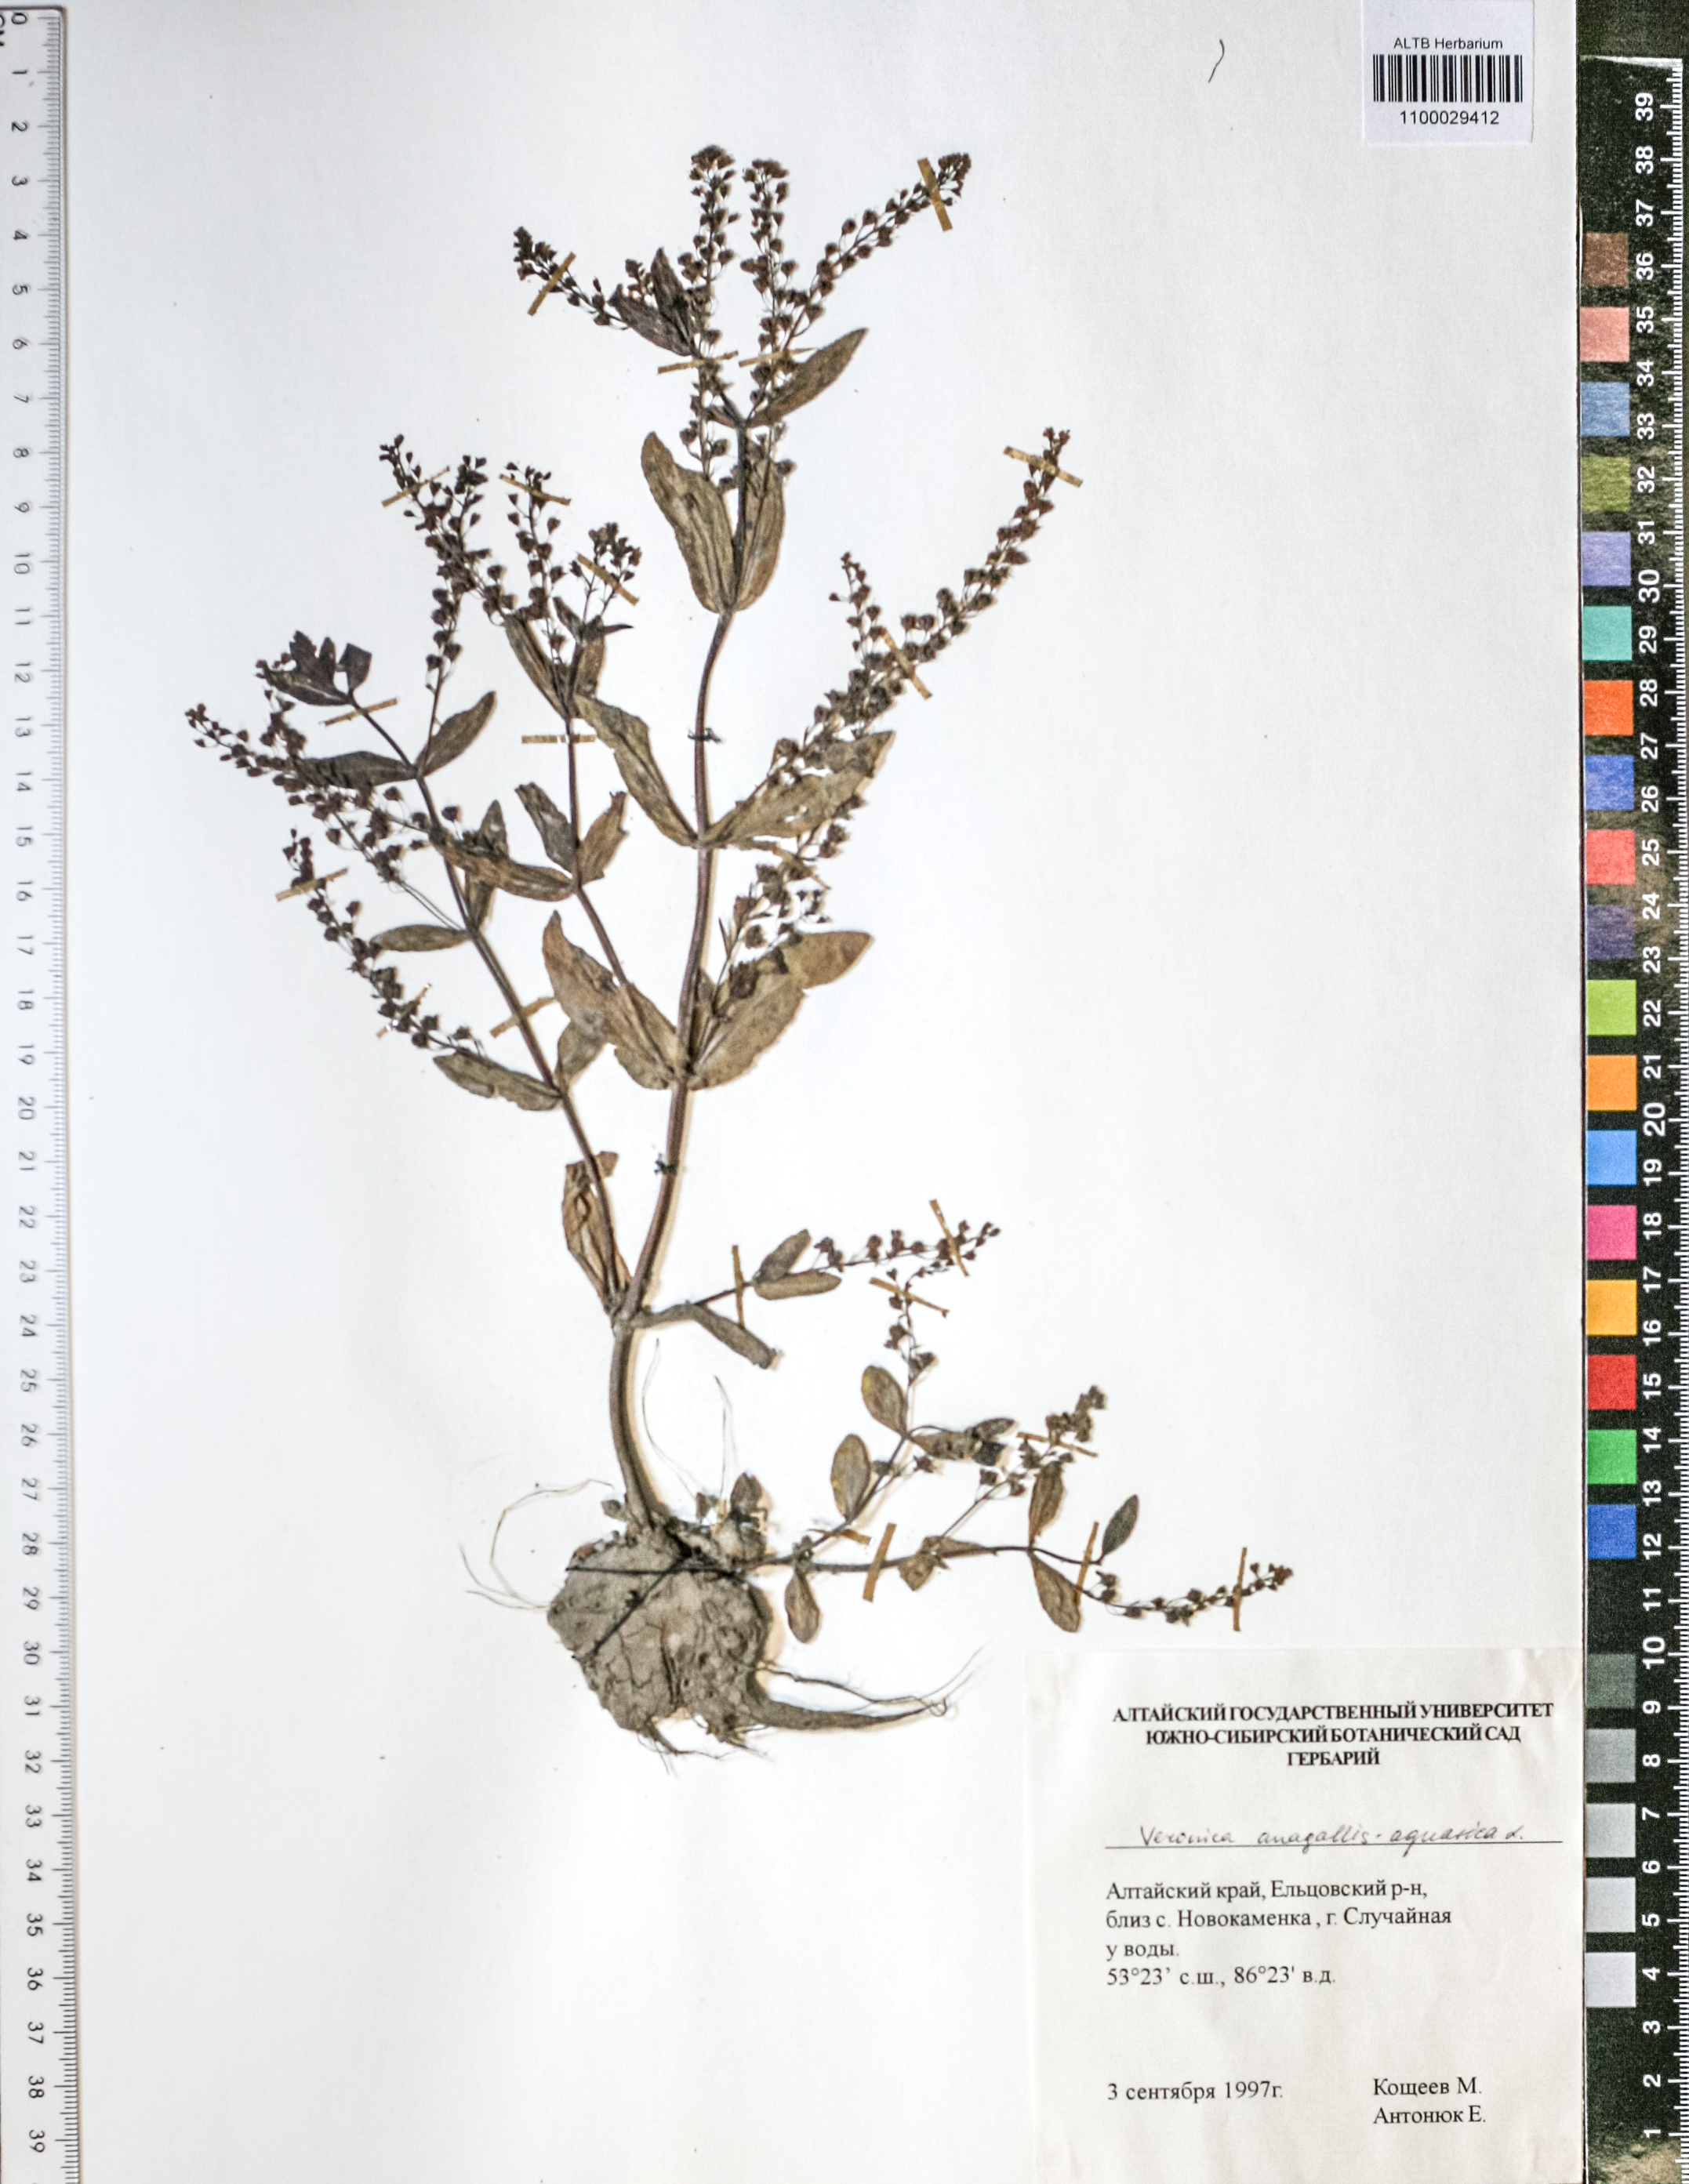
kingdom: Plantae
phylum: Tracheophyta
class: Magnoliopsida
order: Lamiales
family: Plantaginaceae
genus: Veronica
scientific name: Veronica alpina
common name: Alpine speedwell
